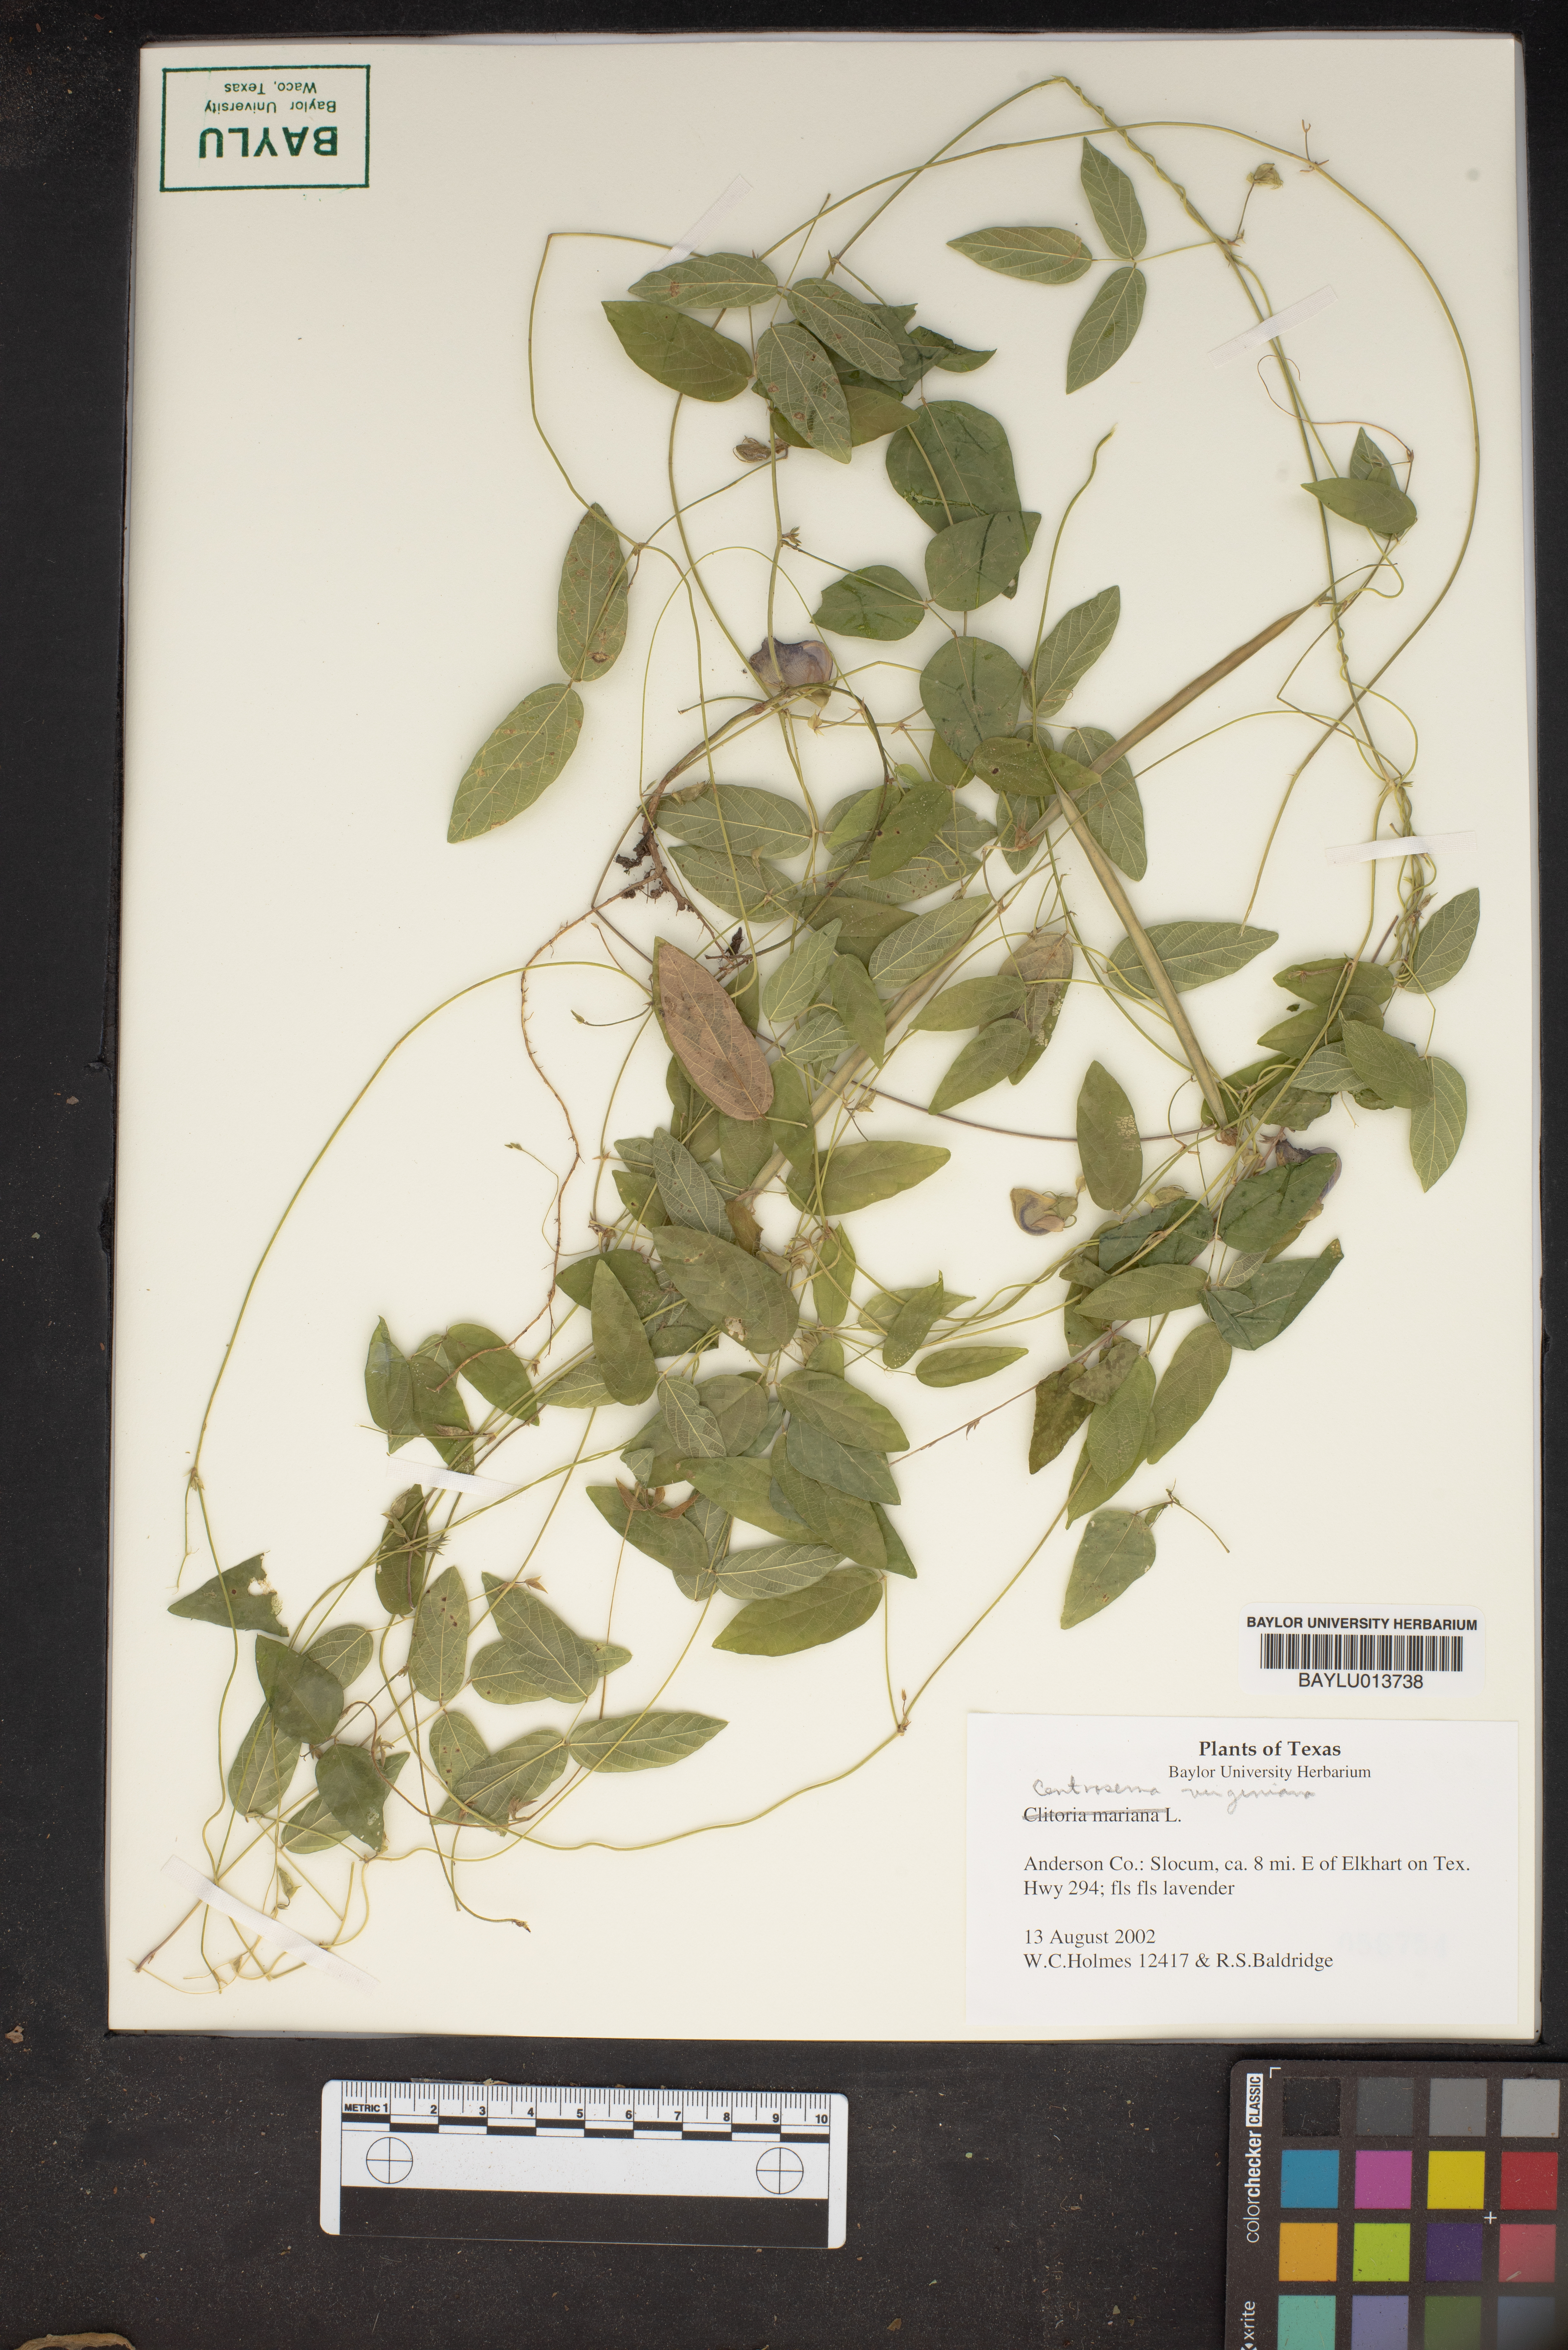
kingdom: Plantae
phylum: Tracheophyta
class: Magnoliopsida
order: Fabales
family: Fabaceae
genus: Centrosema
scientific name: Centrosema virginianum
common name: Butterfly-pea
